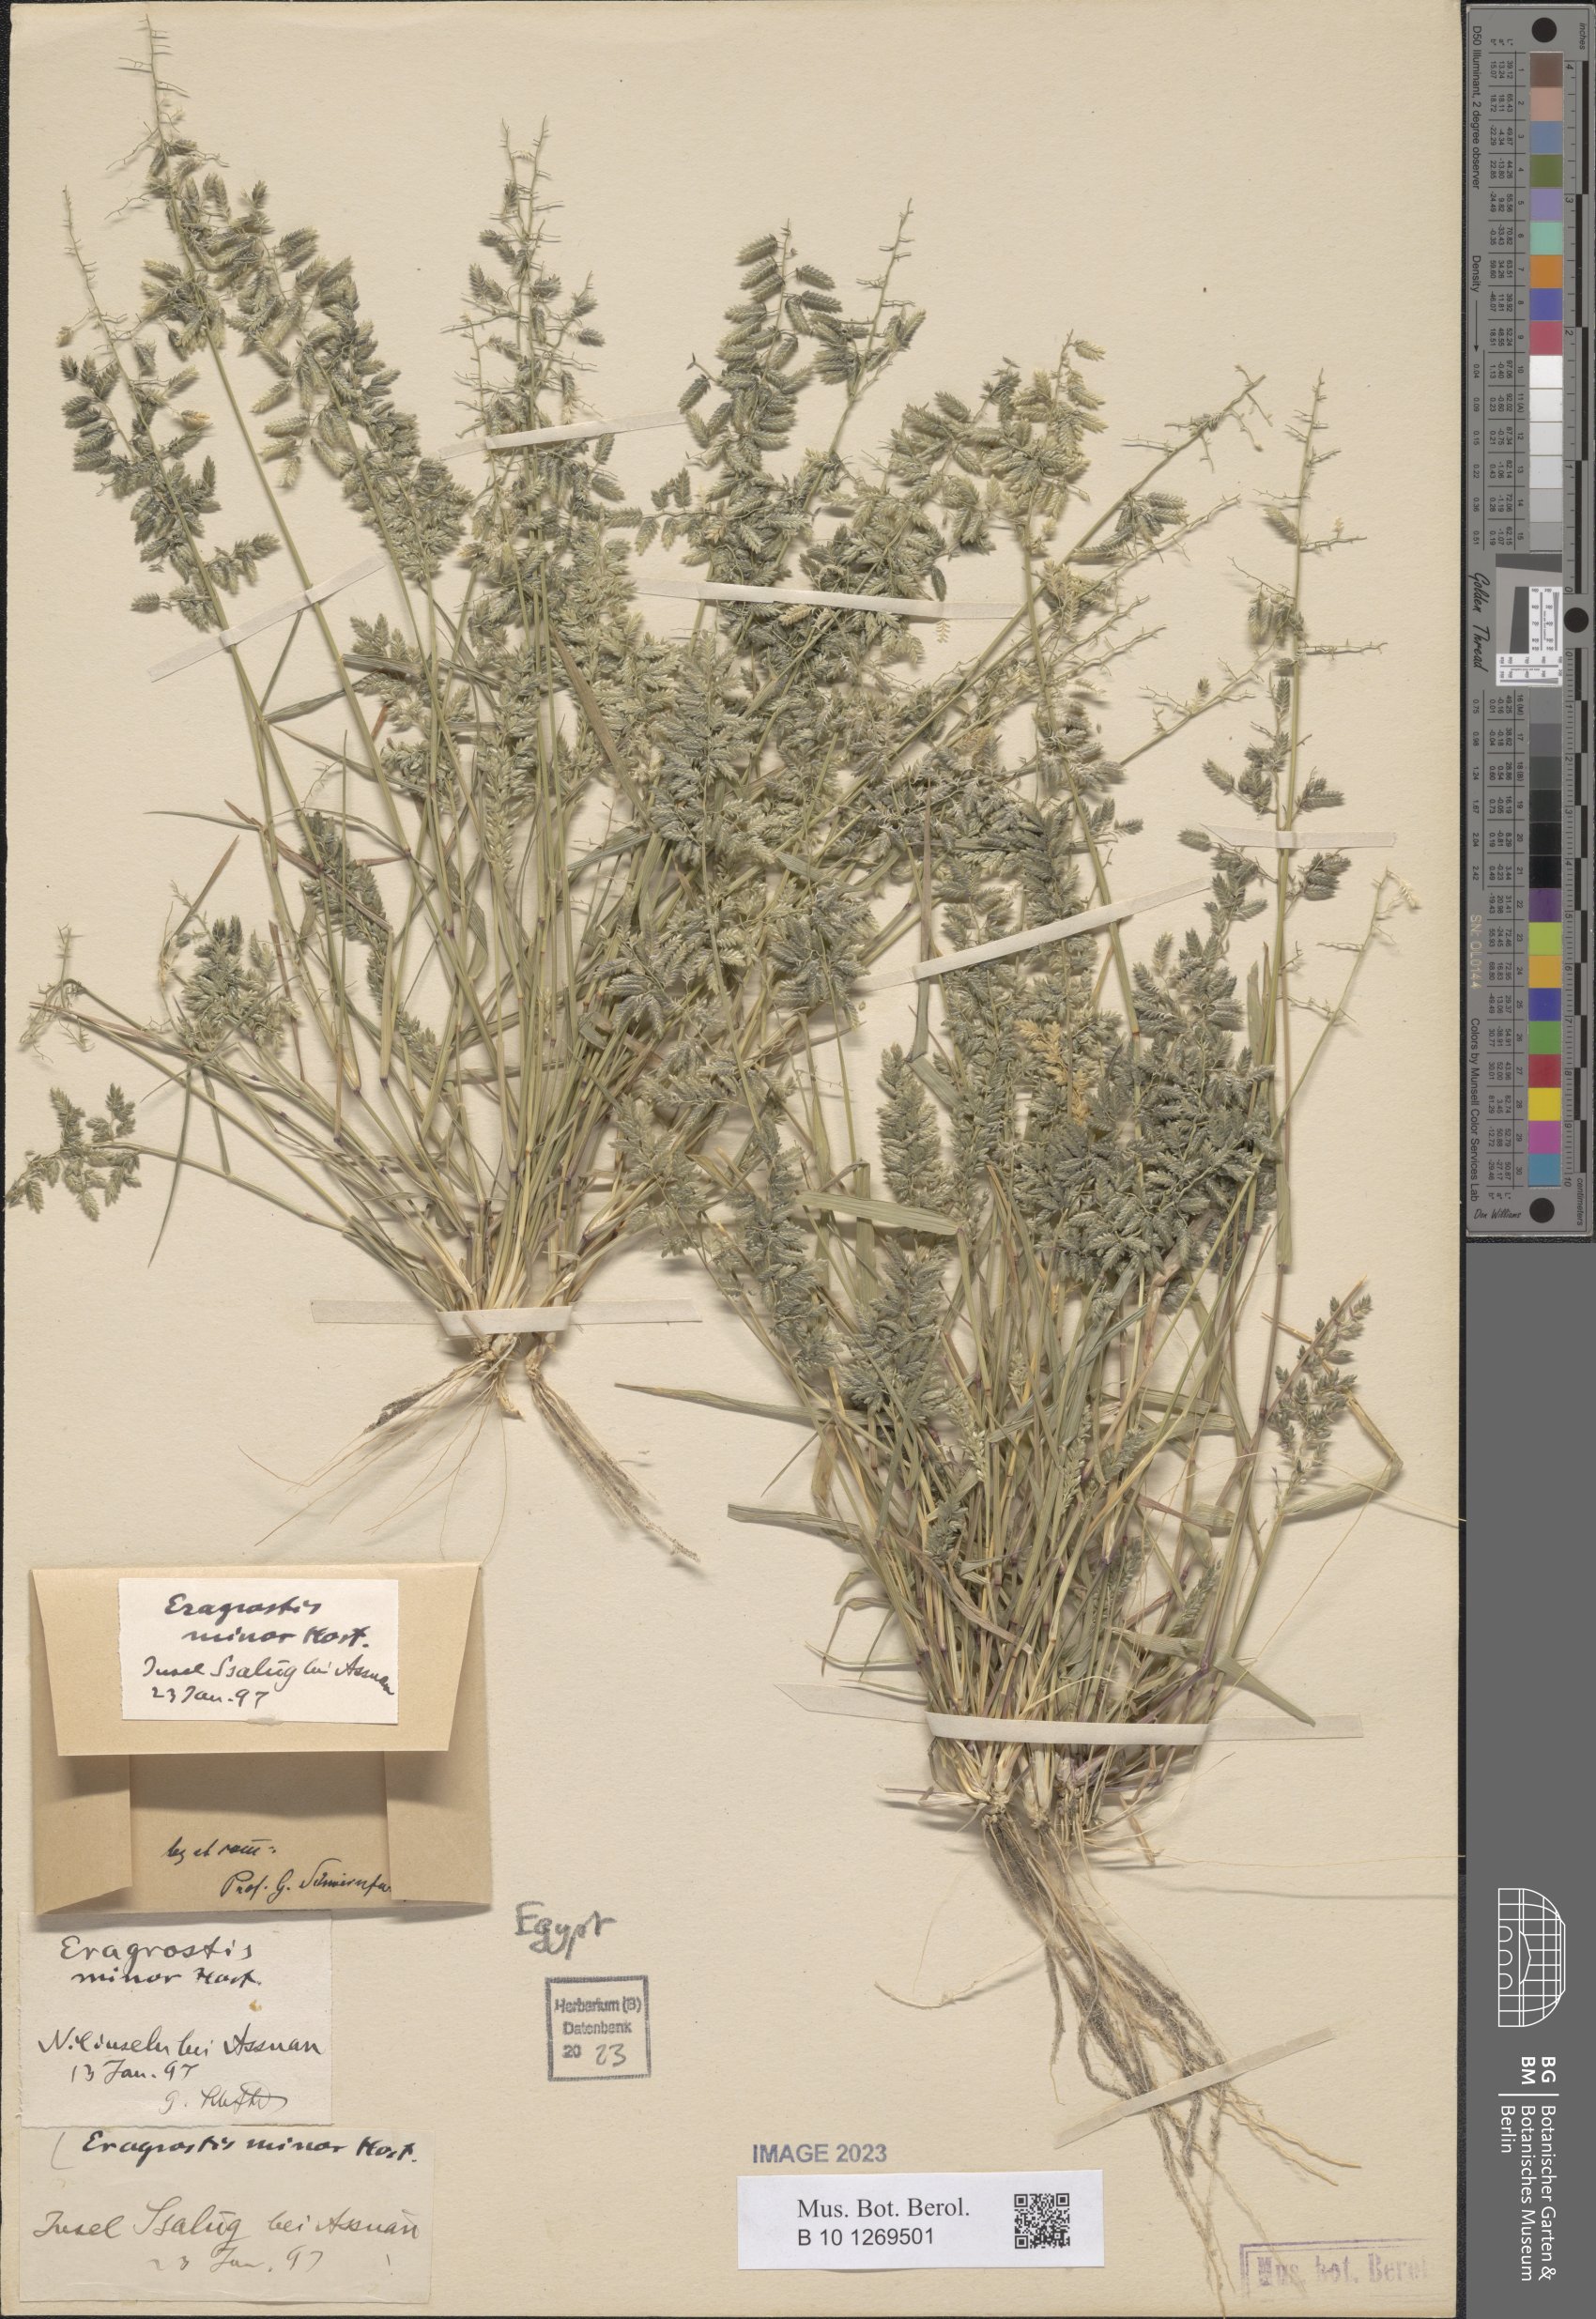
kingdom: Plantae
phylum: Tracheophyta
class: Liliopsida
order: Poales
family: Poaceae
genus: Eragrostis
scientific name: Eragrostis minor
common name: Small love-grass
